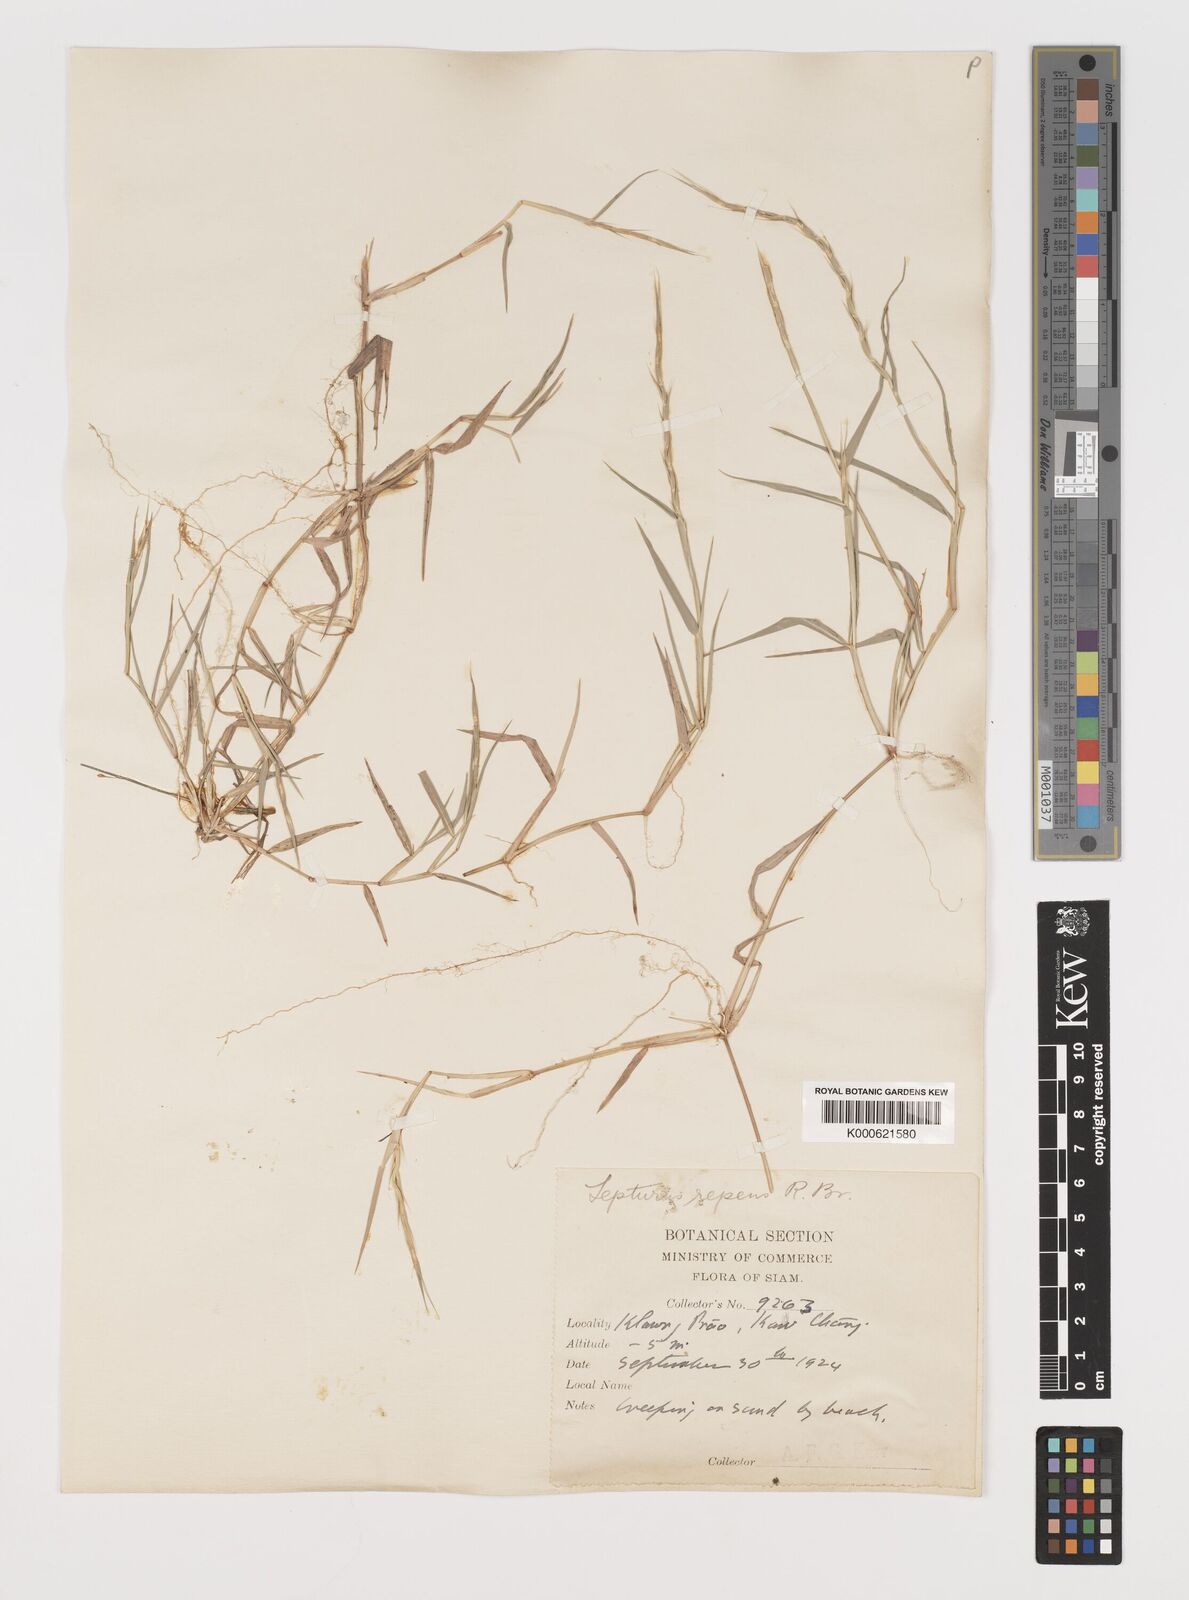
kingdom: Plantae
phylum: Tracheophyta
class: Liliopsida
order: Poales
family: Poaceae
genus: Lepturus
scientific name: Lepturus repens
